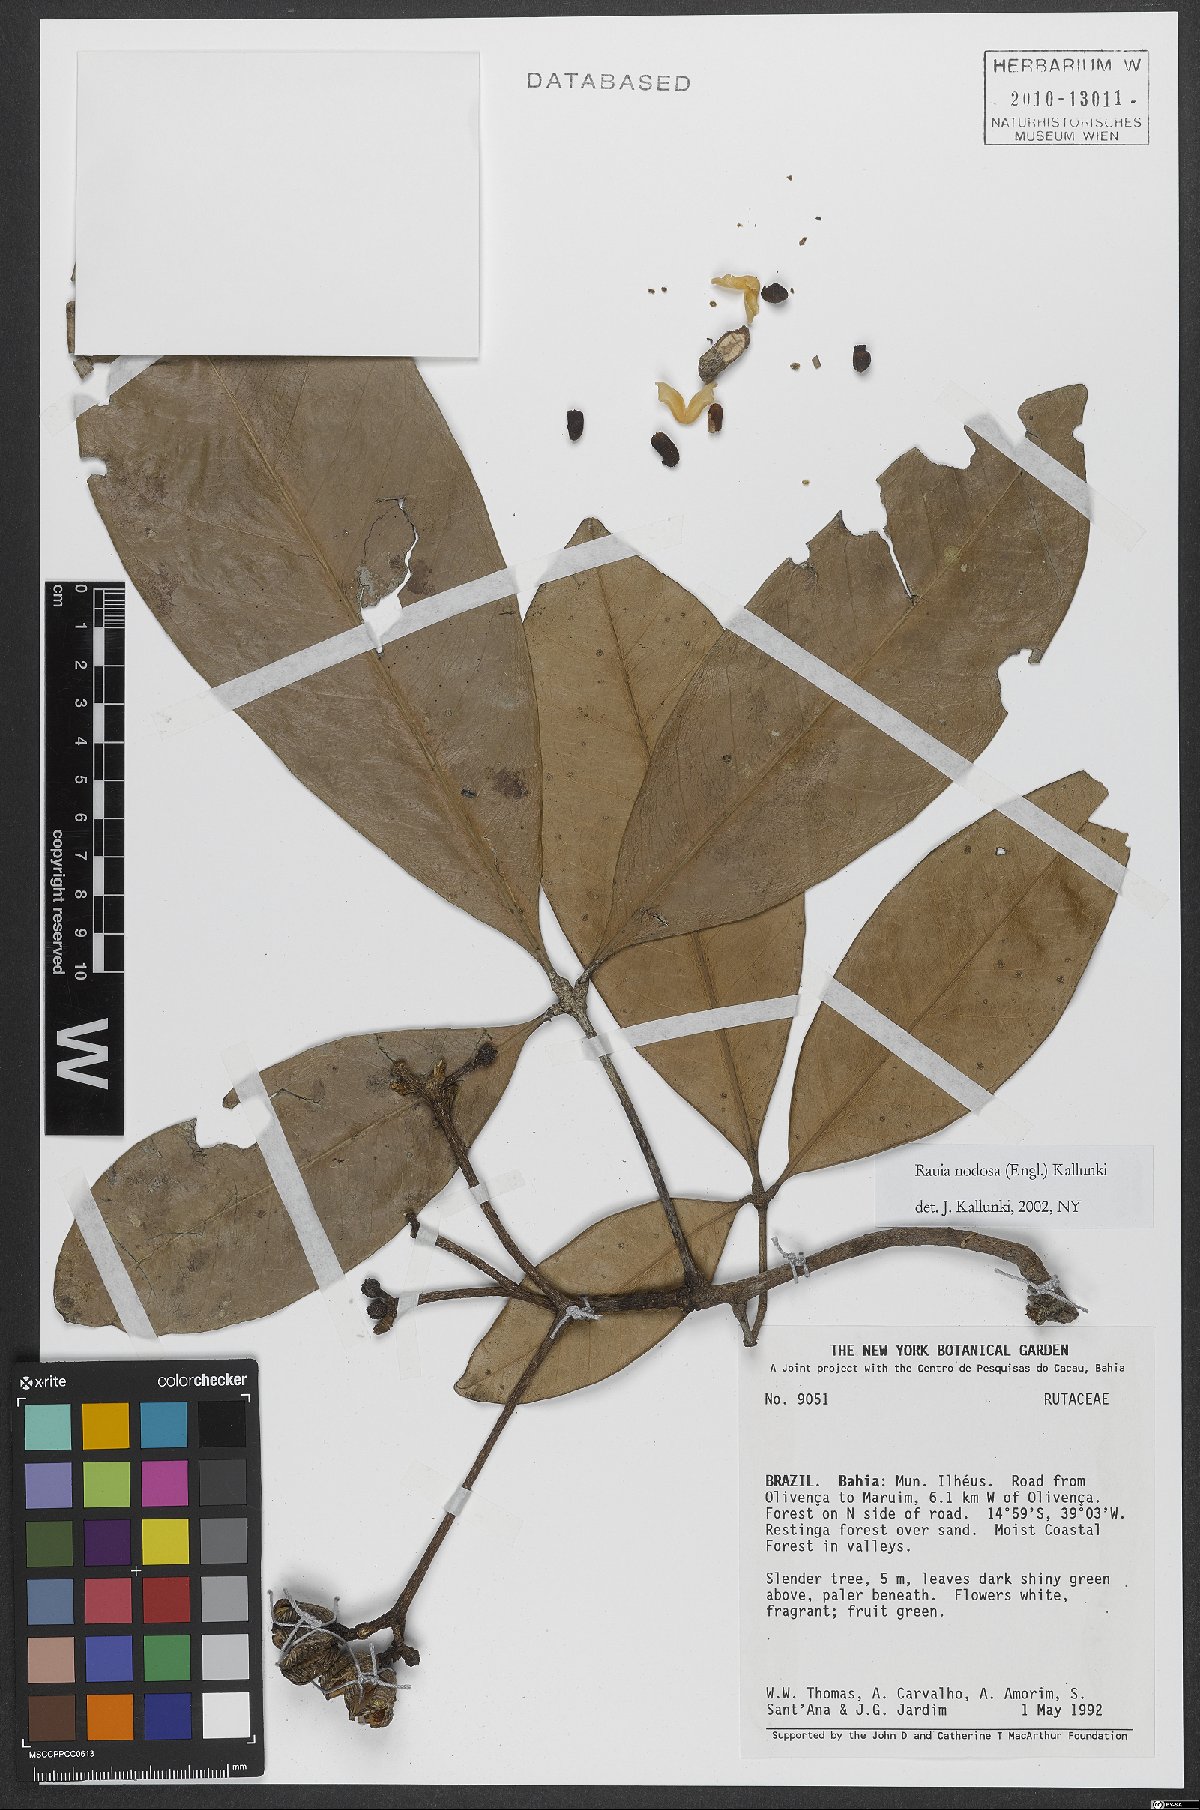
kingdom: Plantae
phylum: Tracheophyta
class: Magnoliopsida
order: Sapindales
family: Rutaceae
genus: Rauia
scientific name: Rauia nodosa
